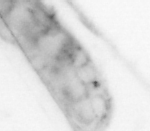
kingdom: Animalia
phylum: Arthropoda
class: Malacostraca
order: Decapoda
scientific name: Decapoda
